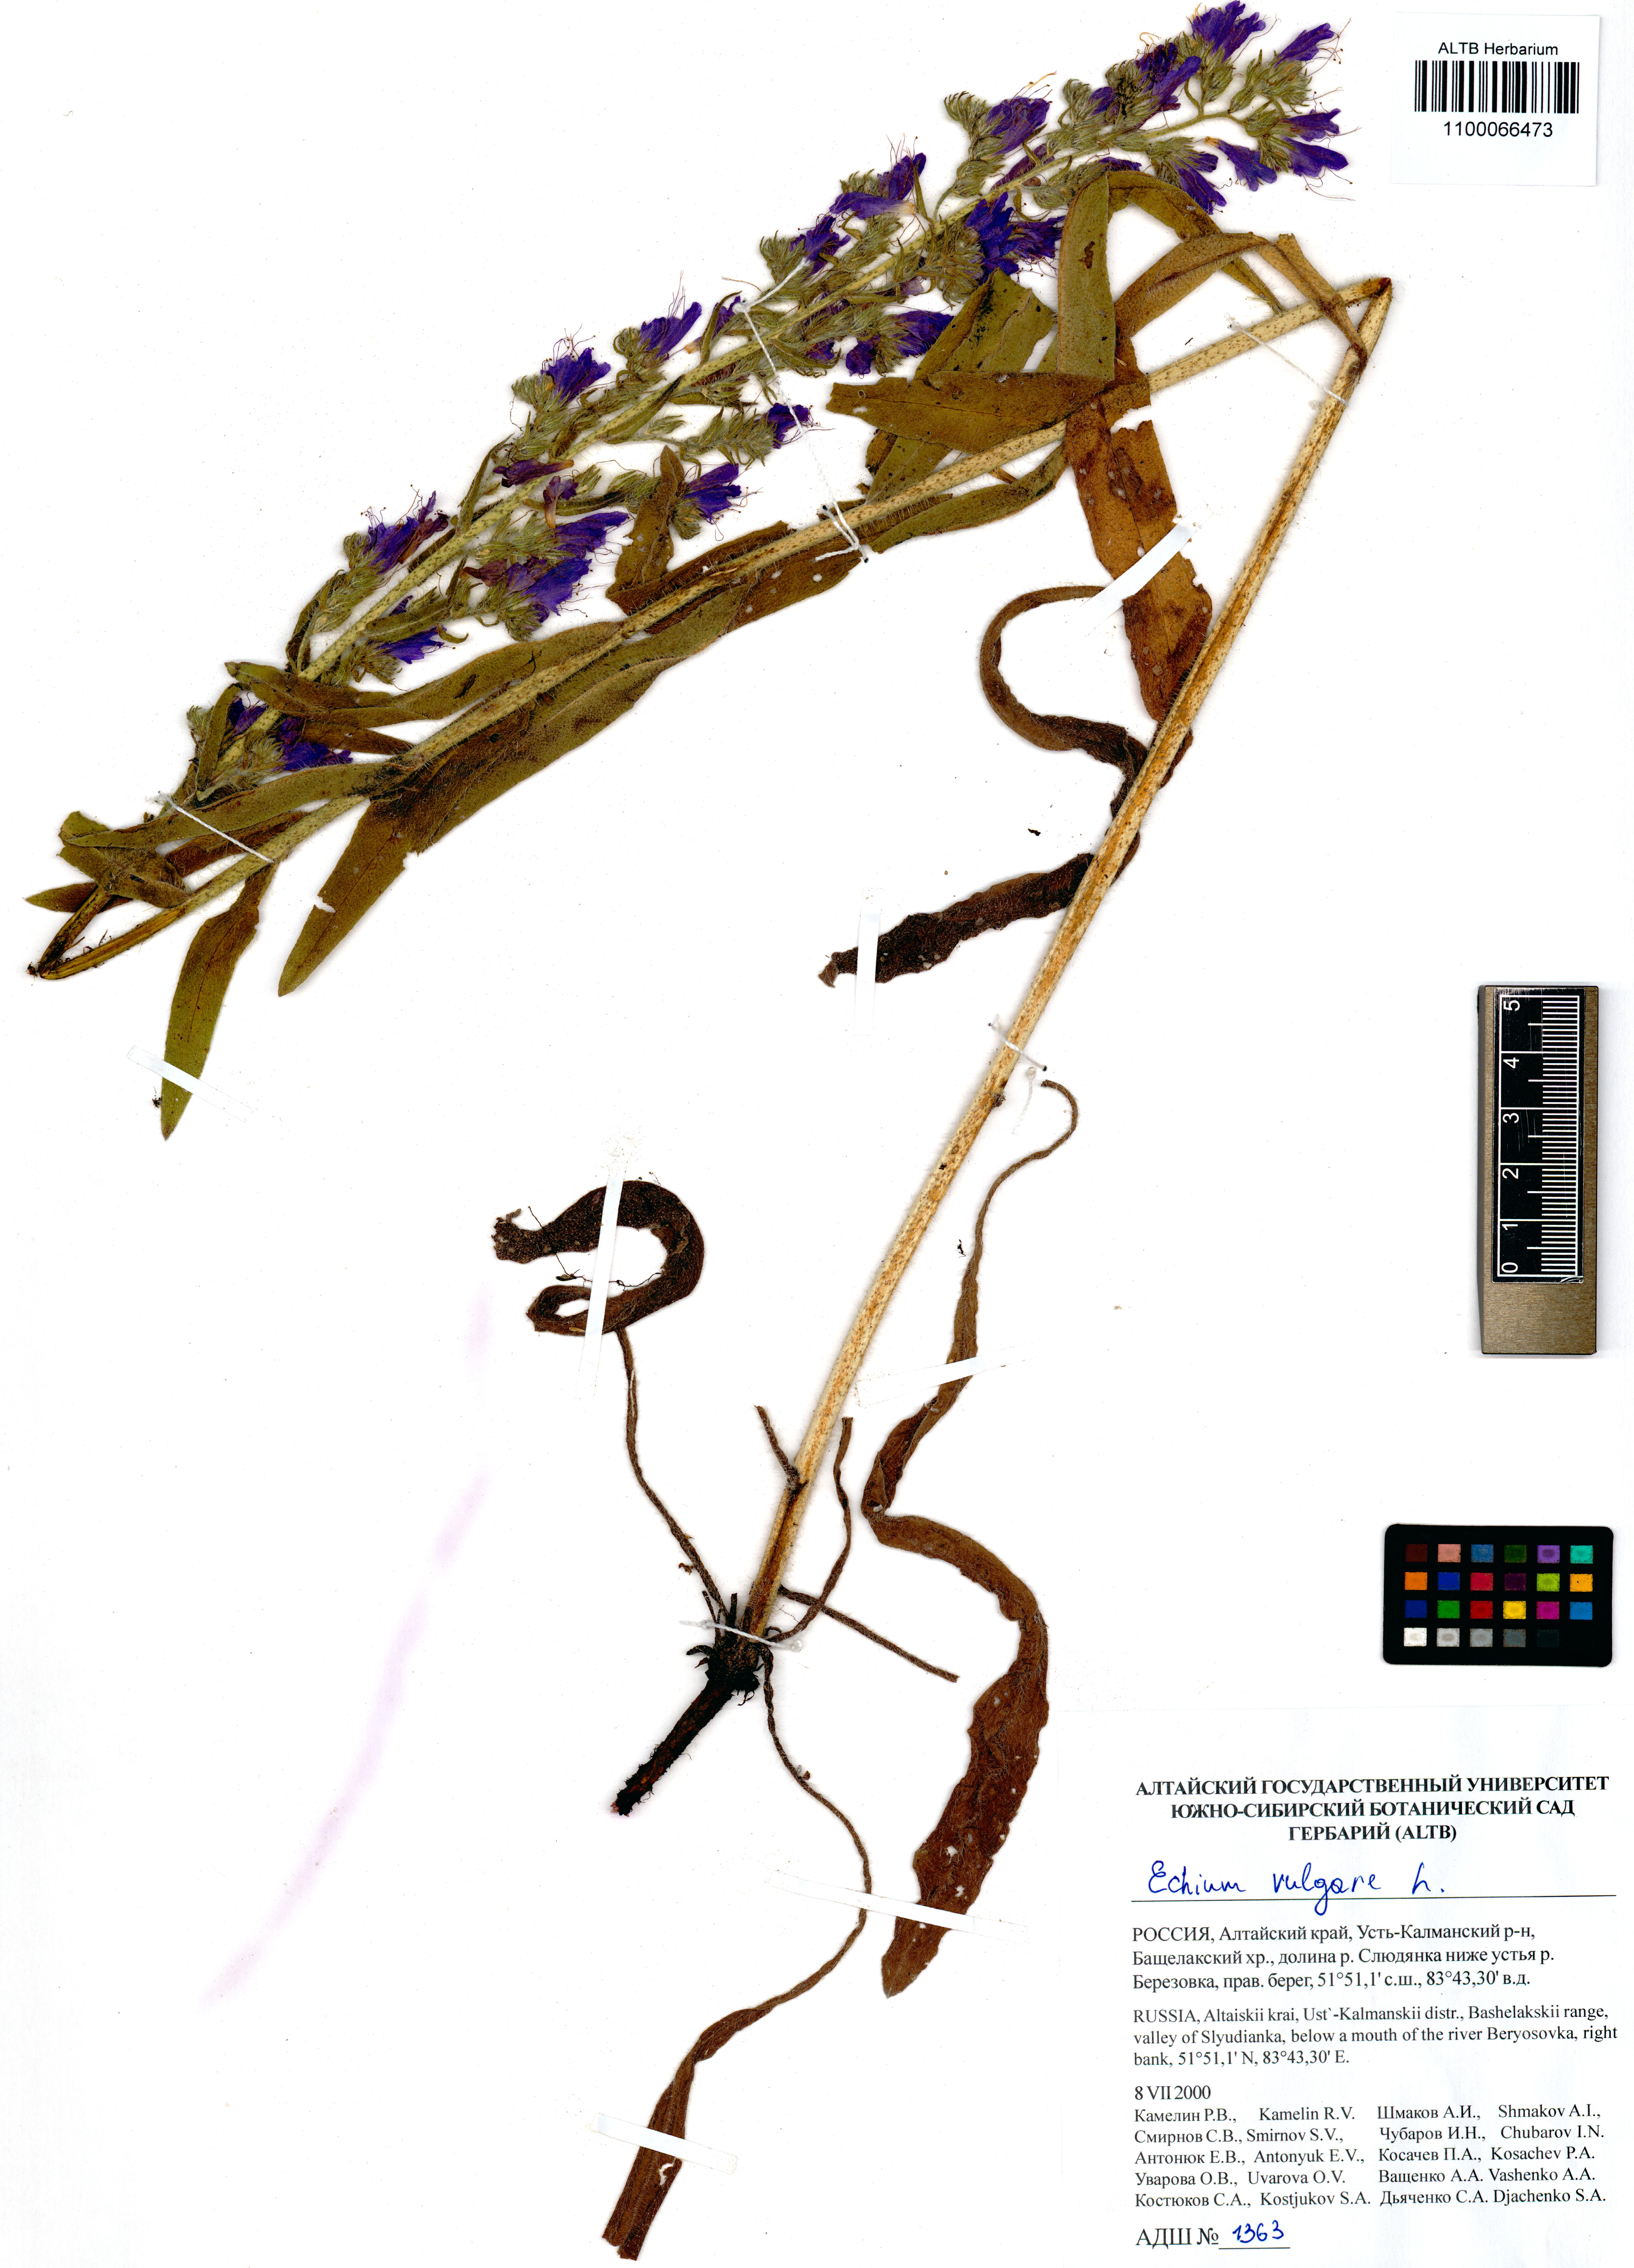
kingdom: Plantae
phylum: Tracheophyta
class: Magnoliopsida
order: Boraginales
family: Boraginaceae
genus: Echium
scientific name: Echium vulgare
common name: Common viper's bugloss
